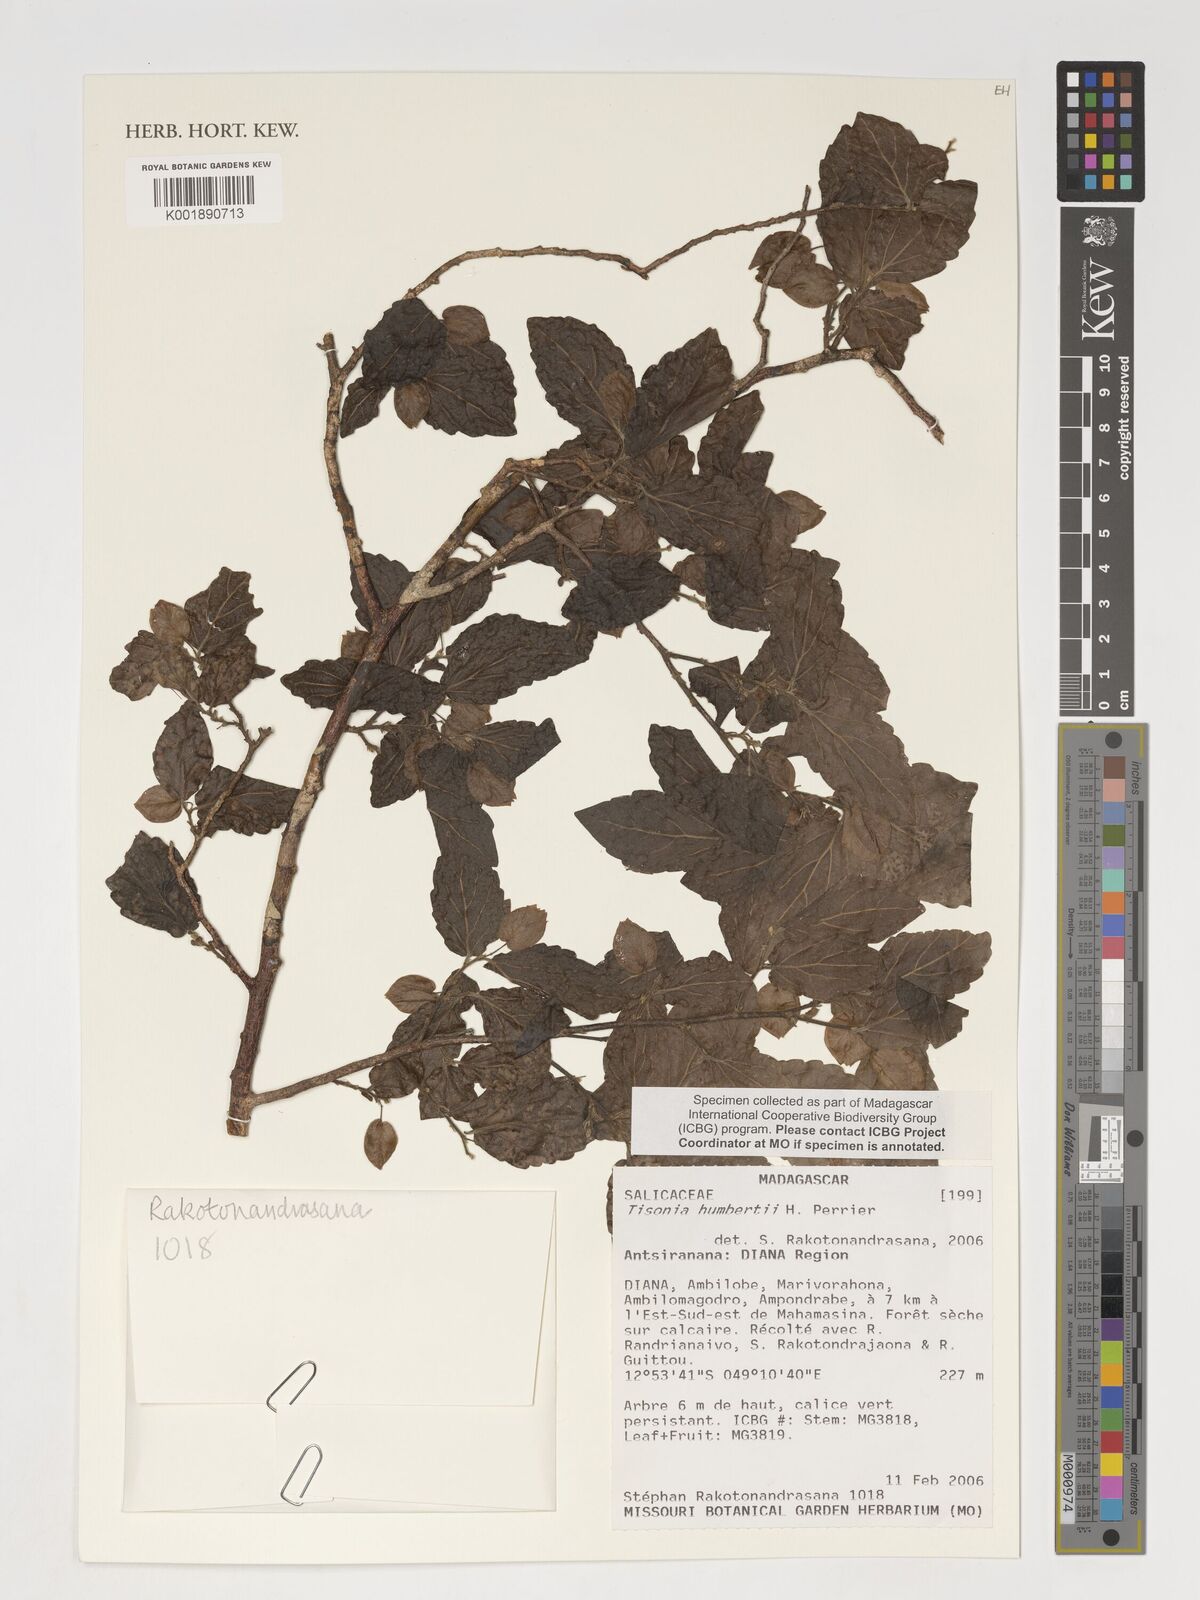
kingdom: Plantae
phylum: Tracheophyta
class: Magnoliopsida
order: Malpighiales
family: Salicaceae
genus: Tisonia
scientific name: Tisonia humbertii
